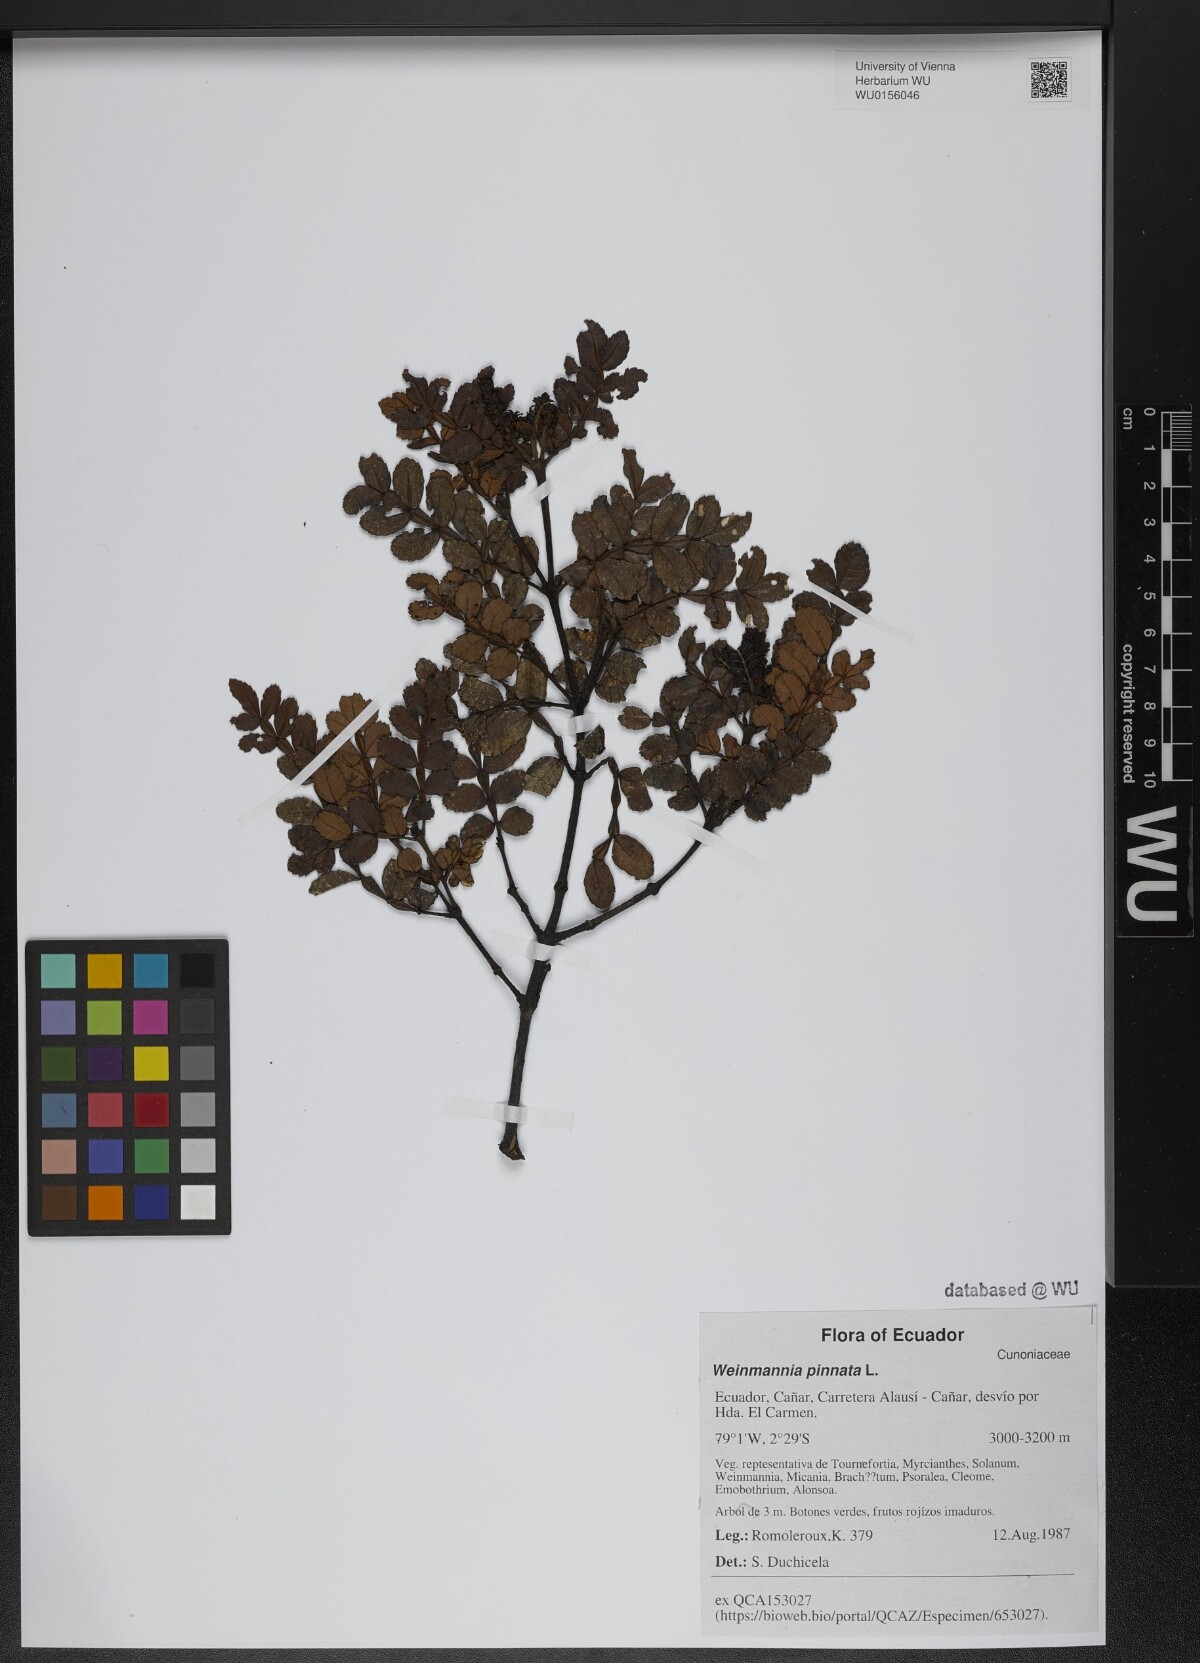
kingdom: Plantae
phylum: Tracheophyta
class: Magnoliopsida
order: Oxalidales
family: Cunoniaceae
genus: Weinmannia
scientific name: Weinmannia pinnata
